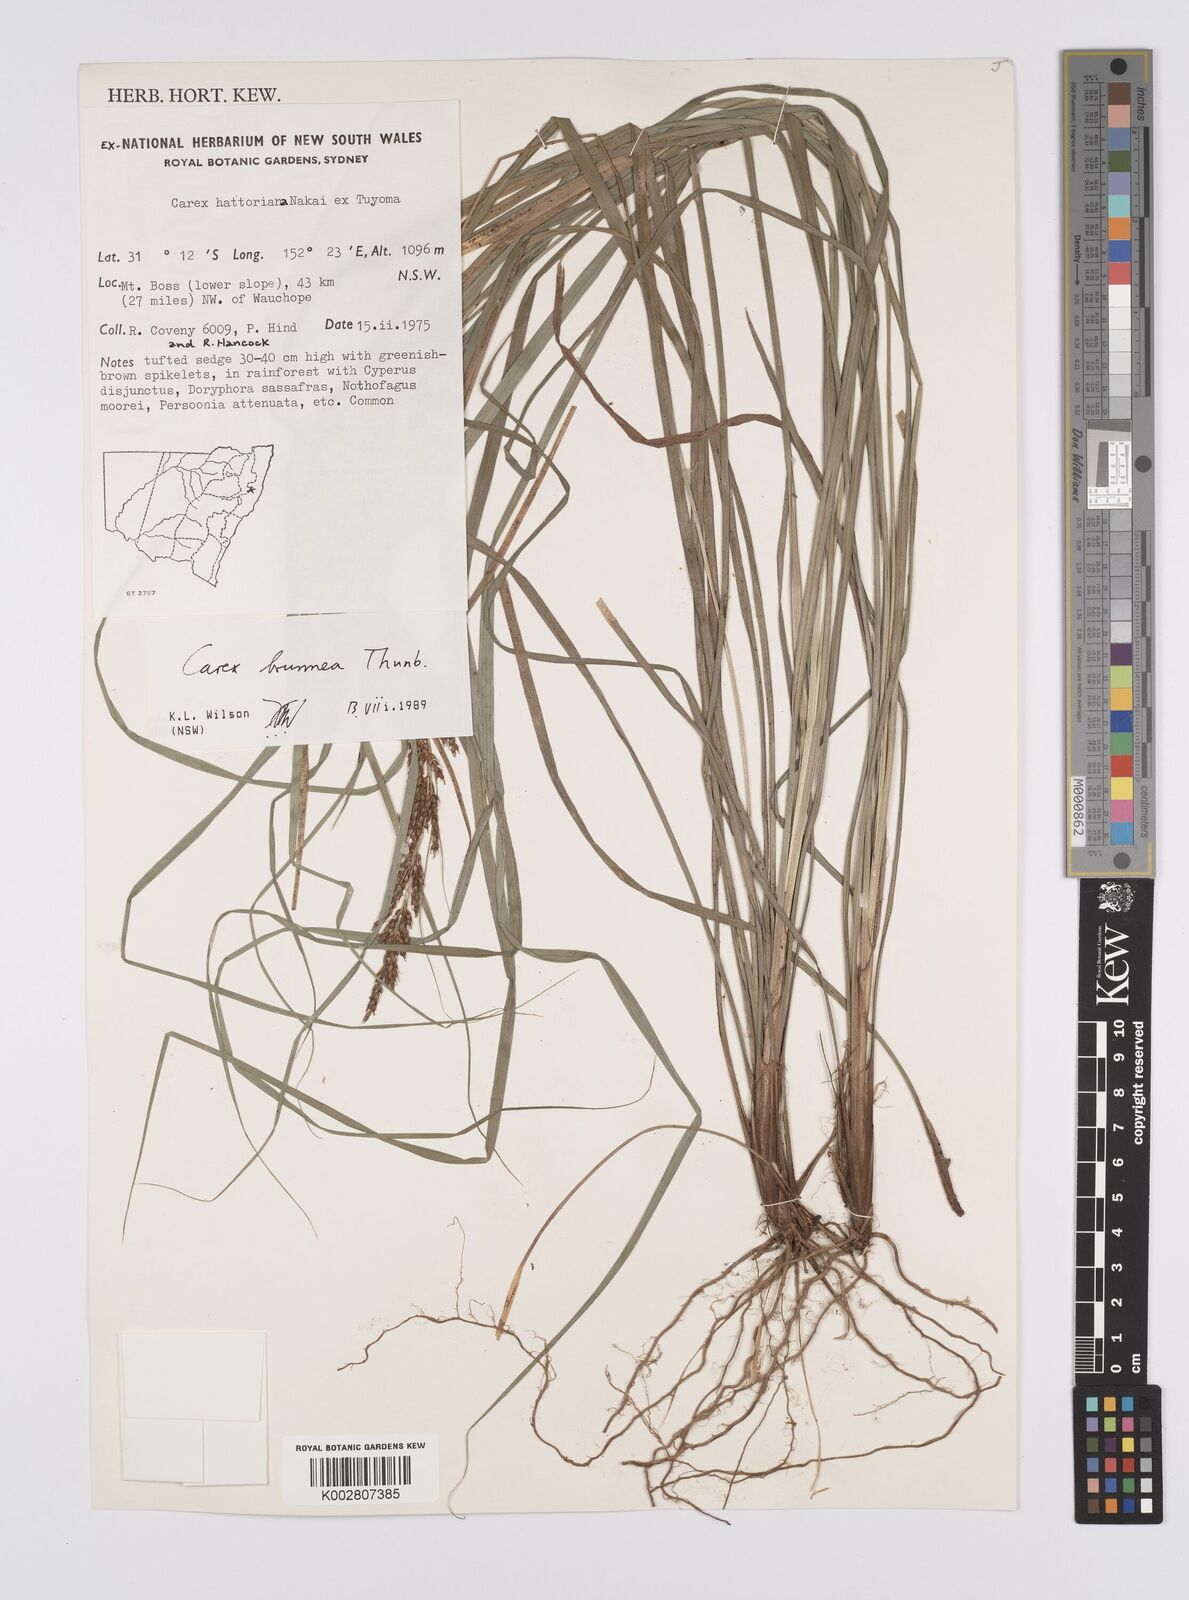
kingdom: Plantae
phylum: Tracheophyta
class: Liliopsida
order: Poales
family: Cyperaceae
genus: Carex
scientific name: Carex brunnea
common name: Greater brown sedge
